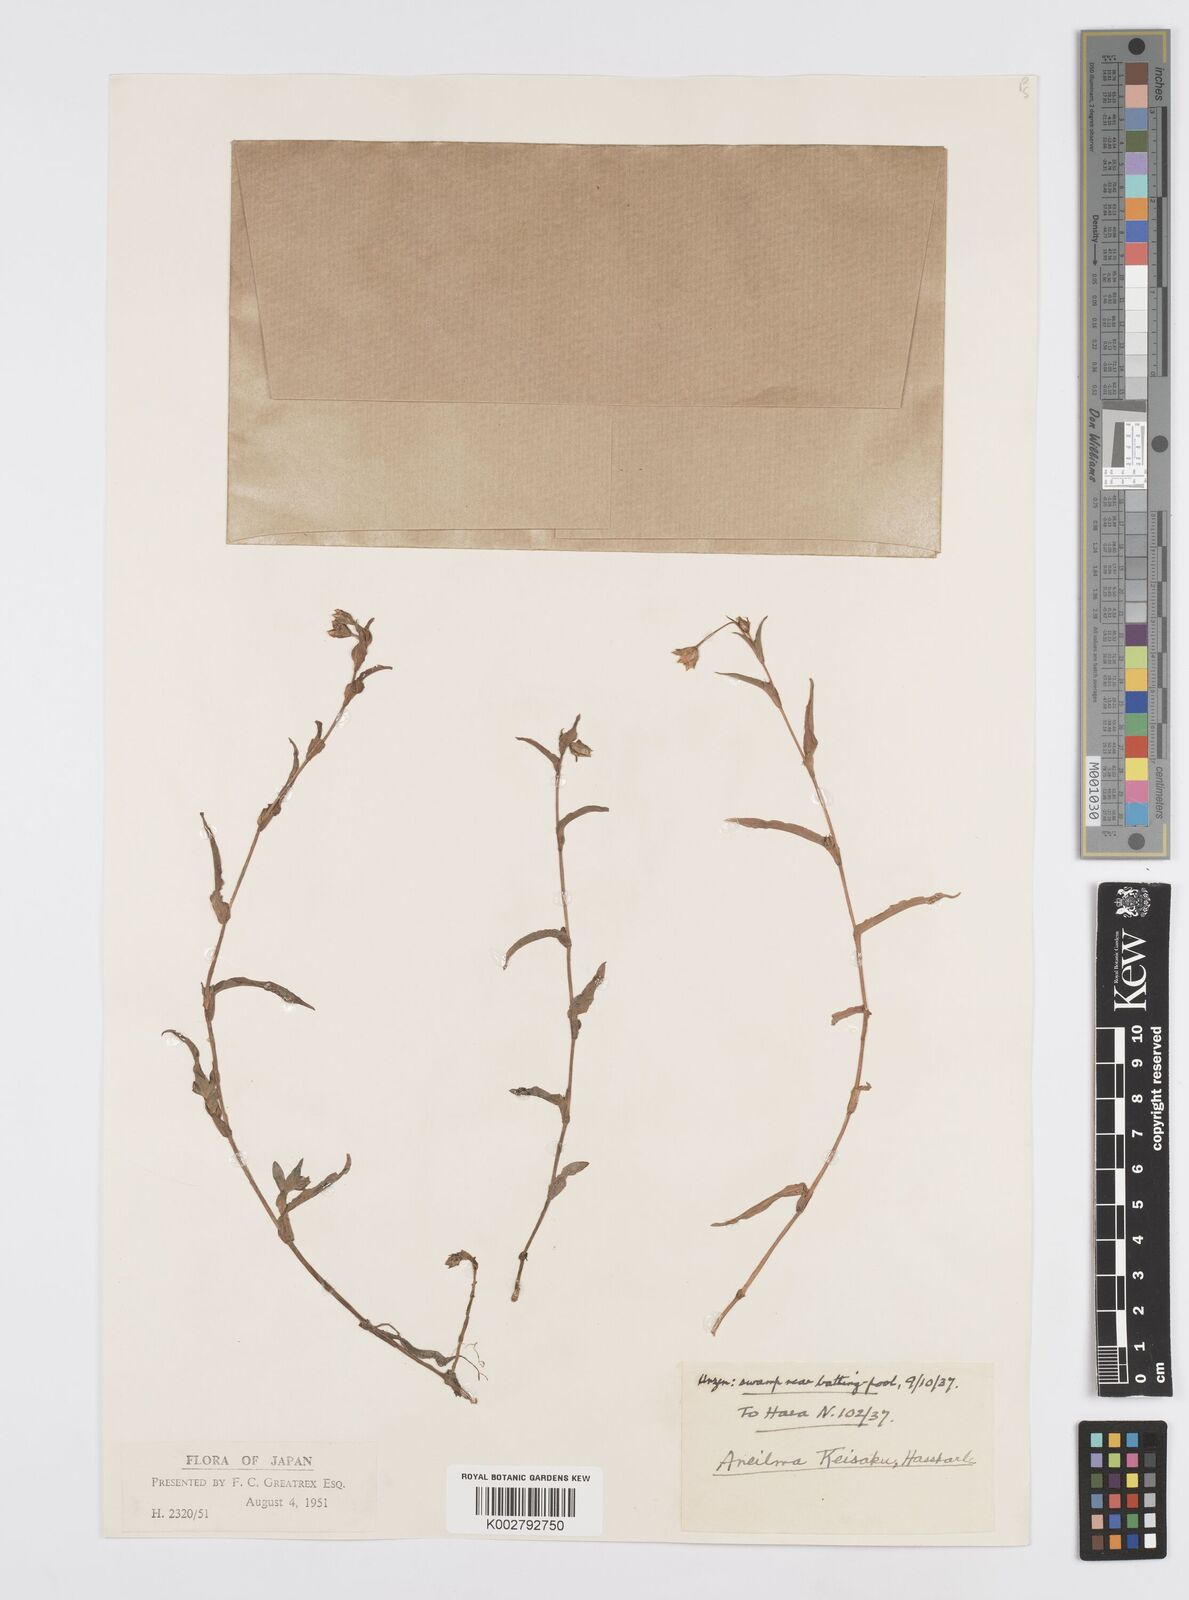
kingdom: Plantae
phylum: Tracheophyta
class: Liliopsida
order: Commelinales
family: Commelinaceae
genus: Murdannia
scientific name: Murdannia keisak
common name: Wartremoving herb
